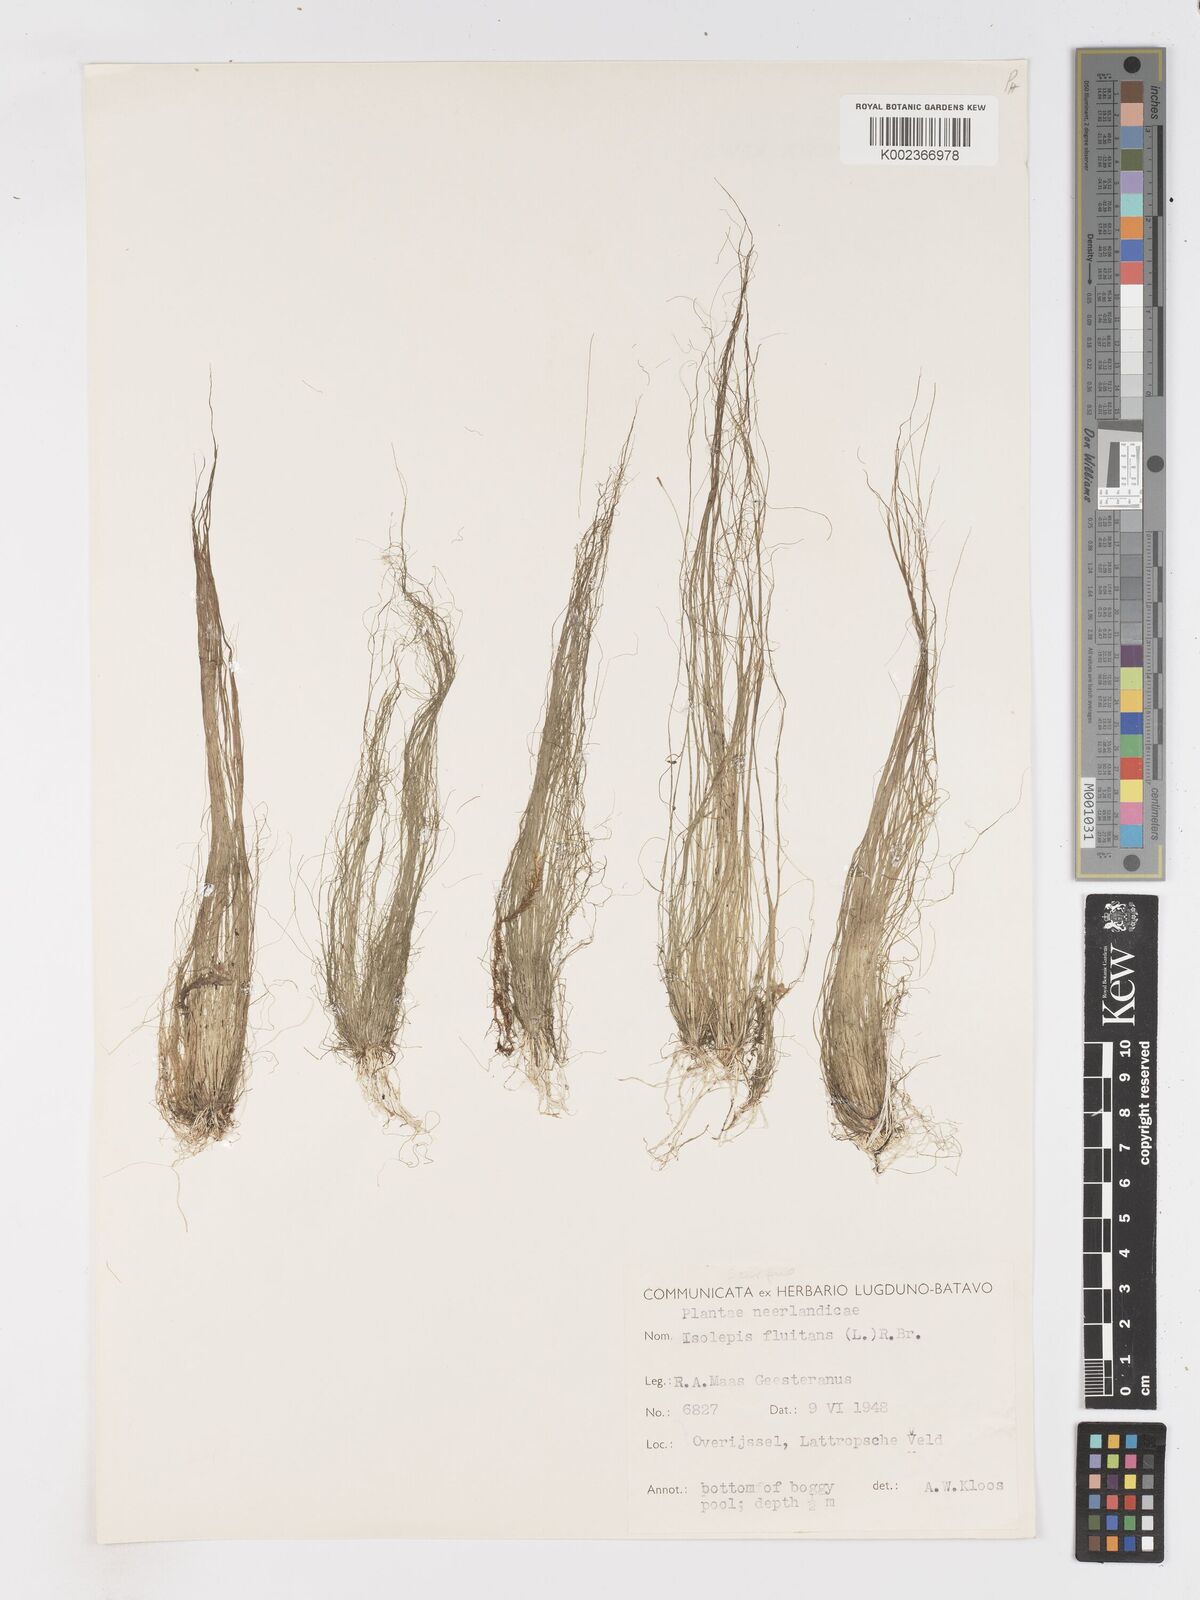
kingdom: Plantae
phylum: Tracheophyta
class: Liliopsida
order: Poales
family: Cyperaceae
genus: Isolepis
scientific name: Isolepis fluitans
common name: Floating club-rush
